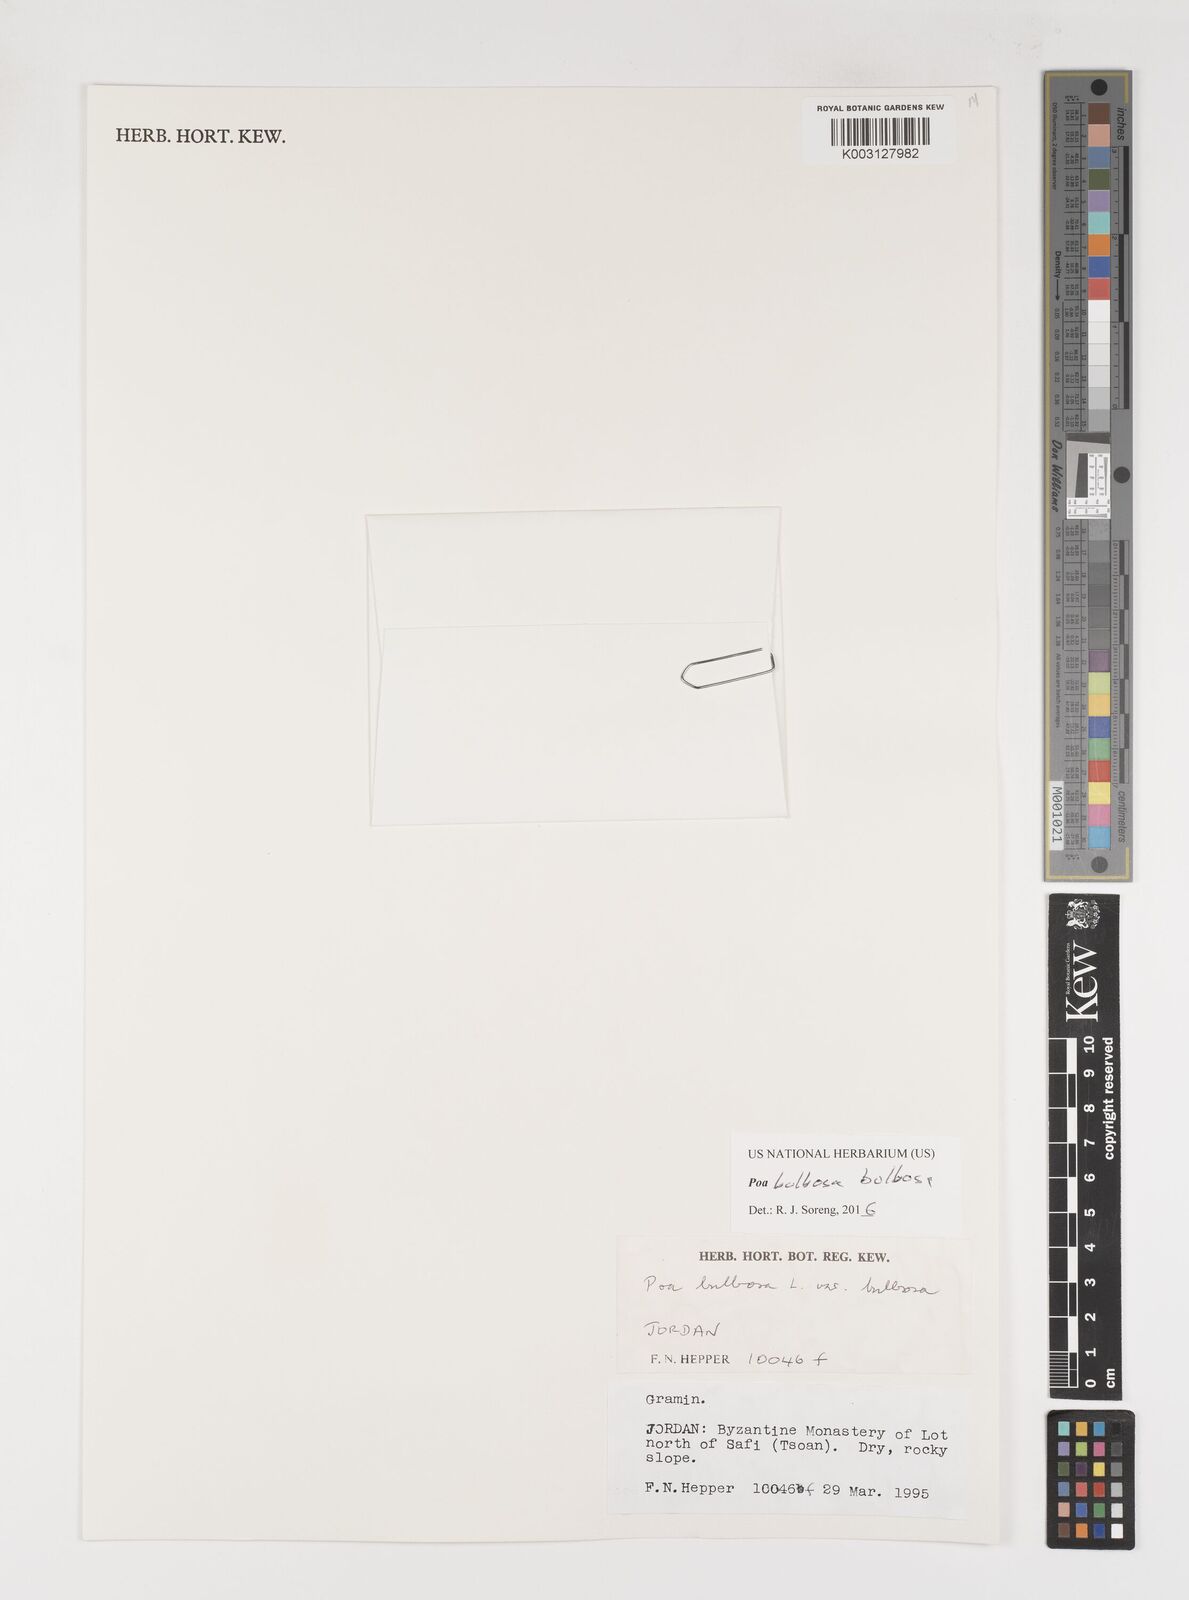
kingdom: Plantae
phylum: Tracheophyta
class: Liliopsida
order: Poales
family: Poaceae
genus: Poa
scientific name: Poa bulbosa
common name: Bulbous bluegrass
